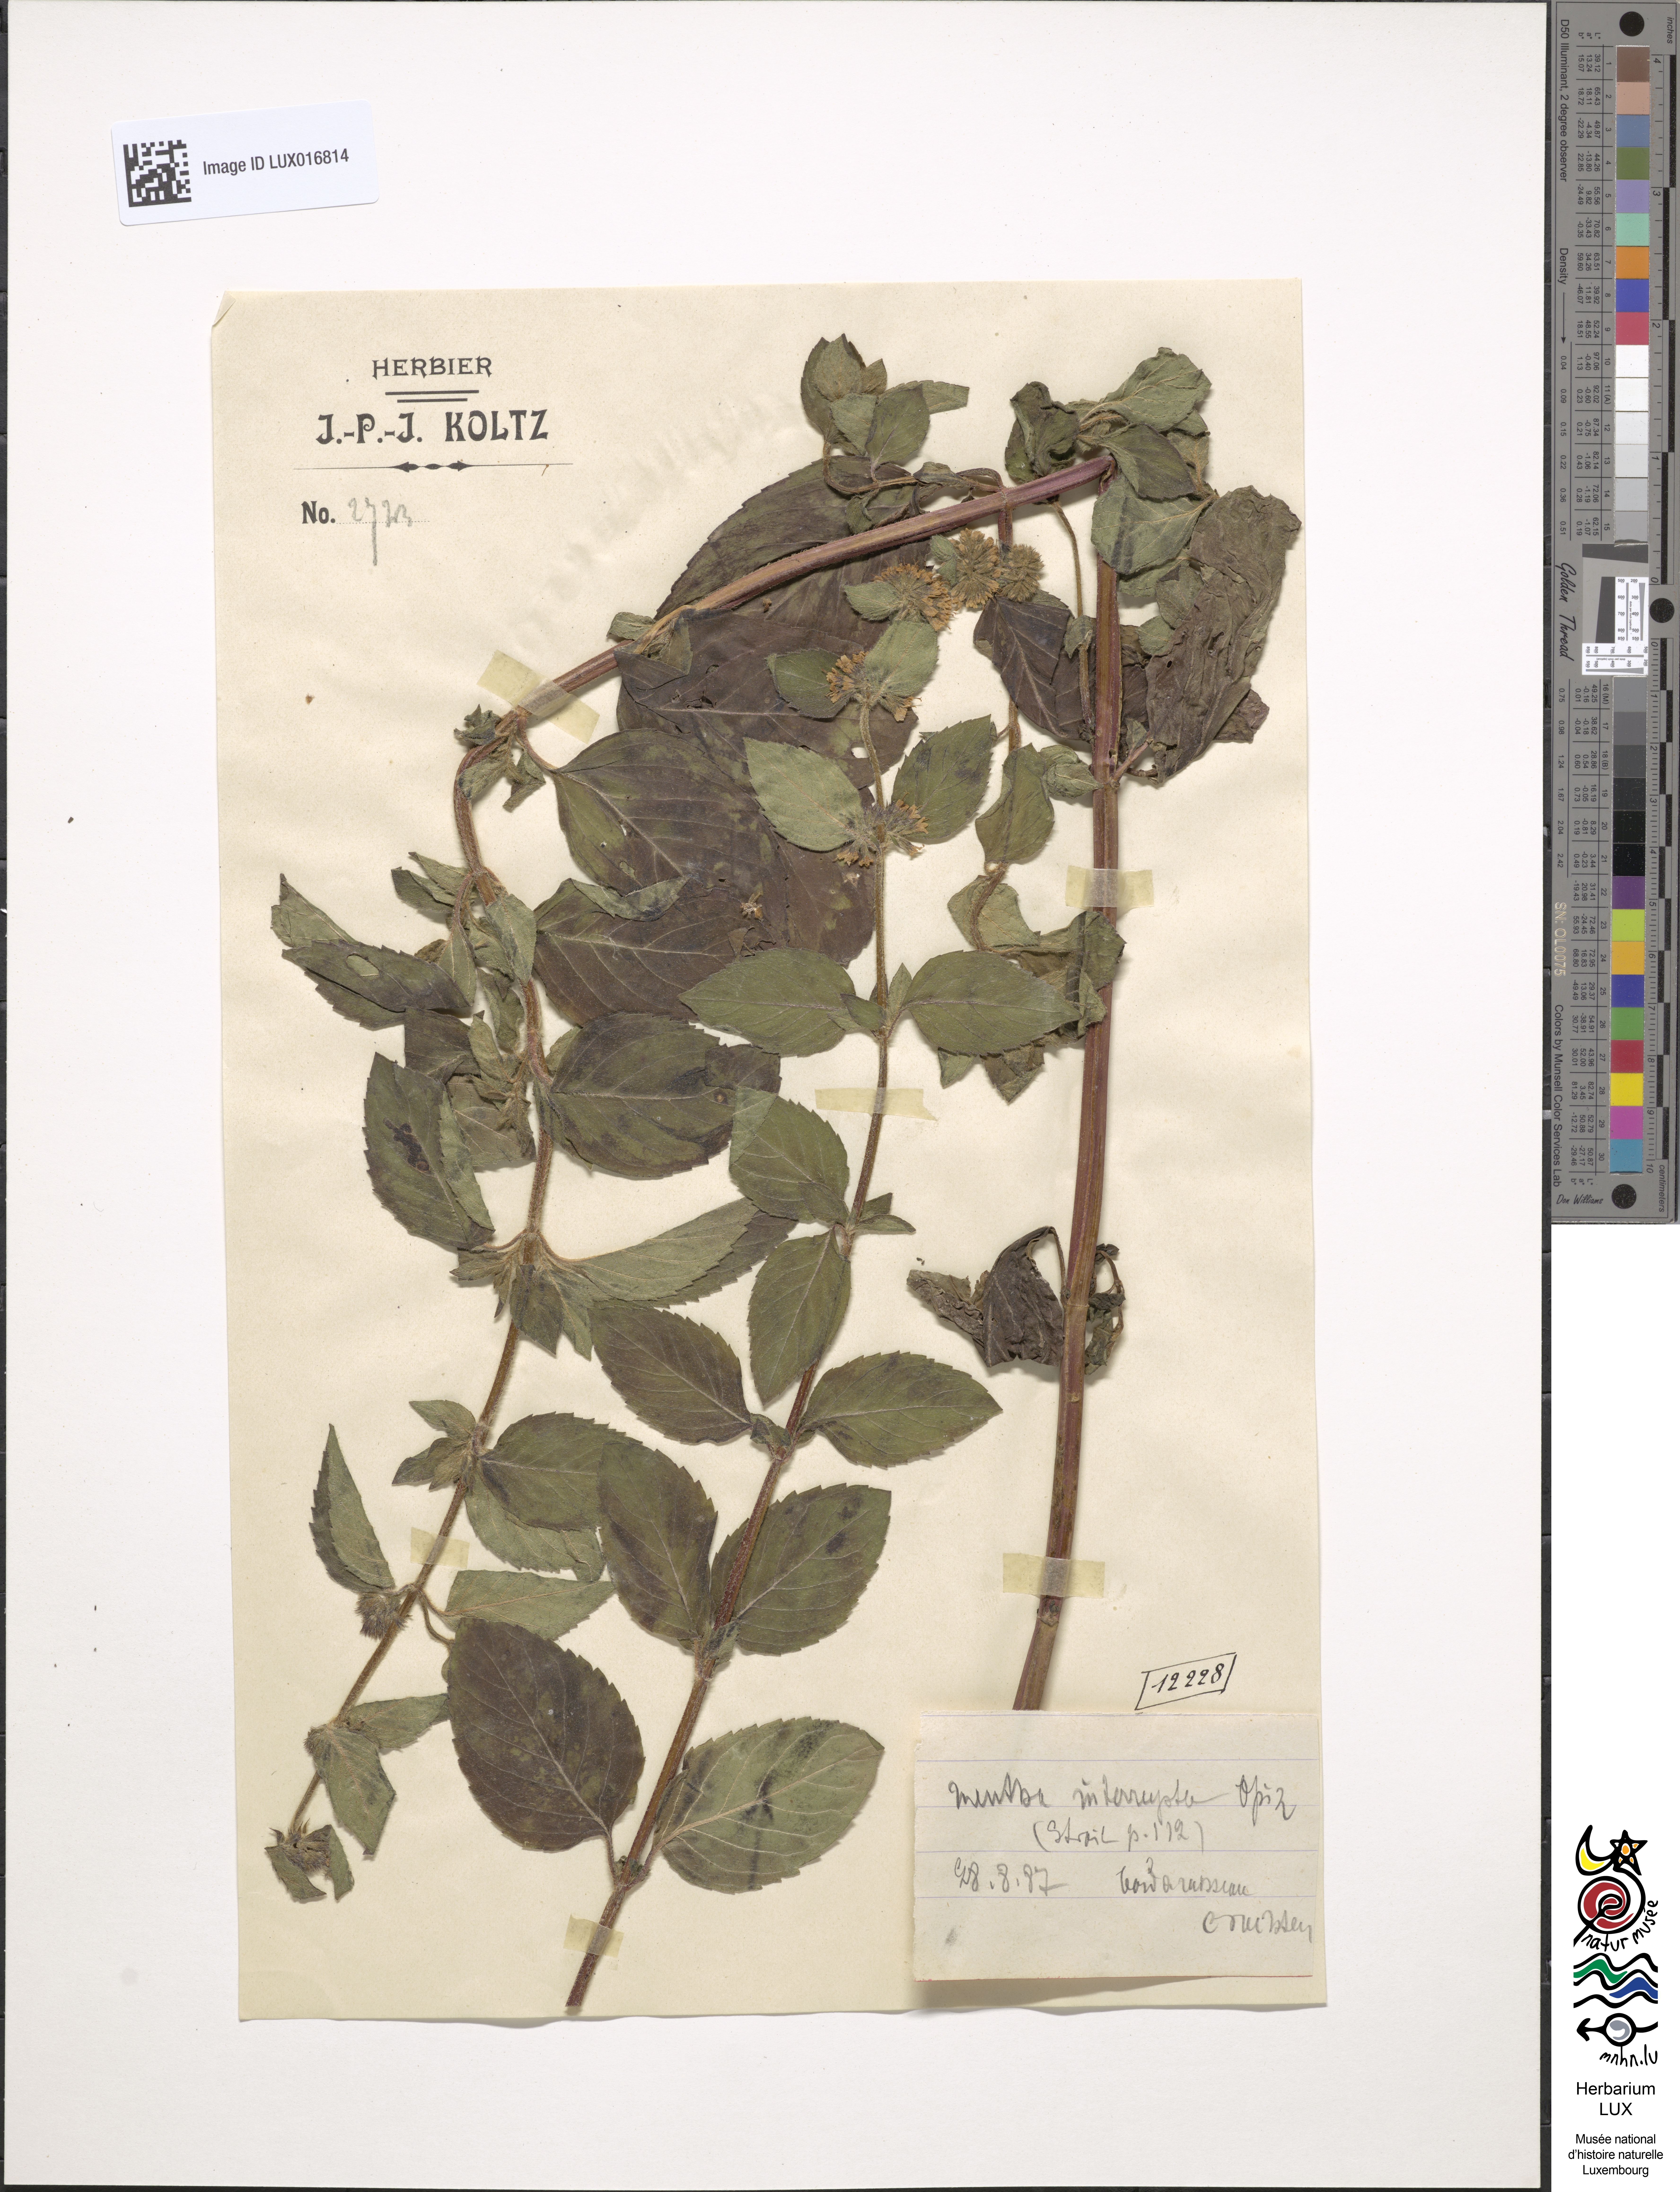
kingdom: Plantae
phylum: Tracheophyta
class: Magnoliopsida
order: Lamiales
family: Lamiaceae
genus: Mentha
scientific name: Mentha interrupta
